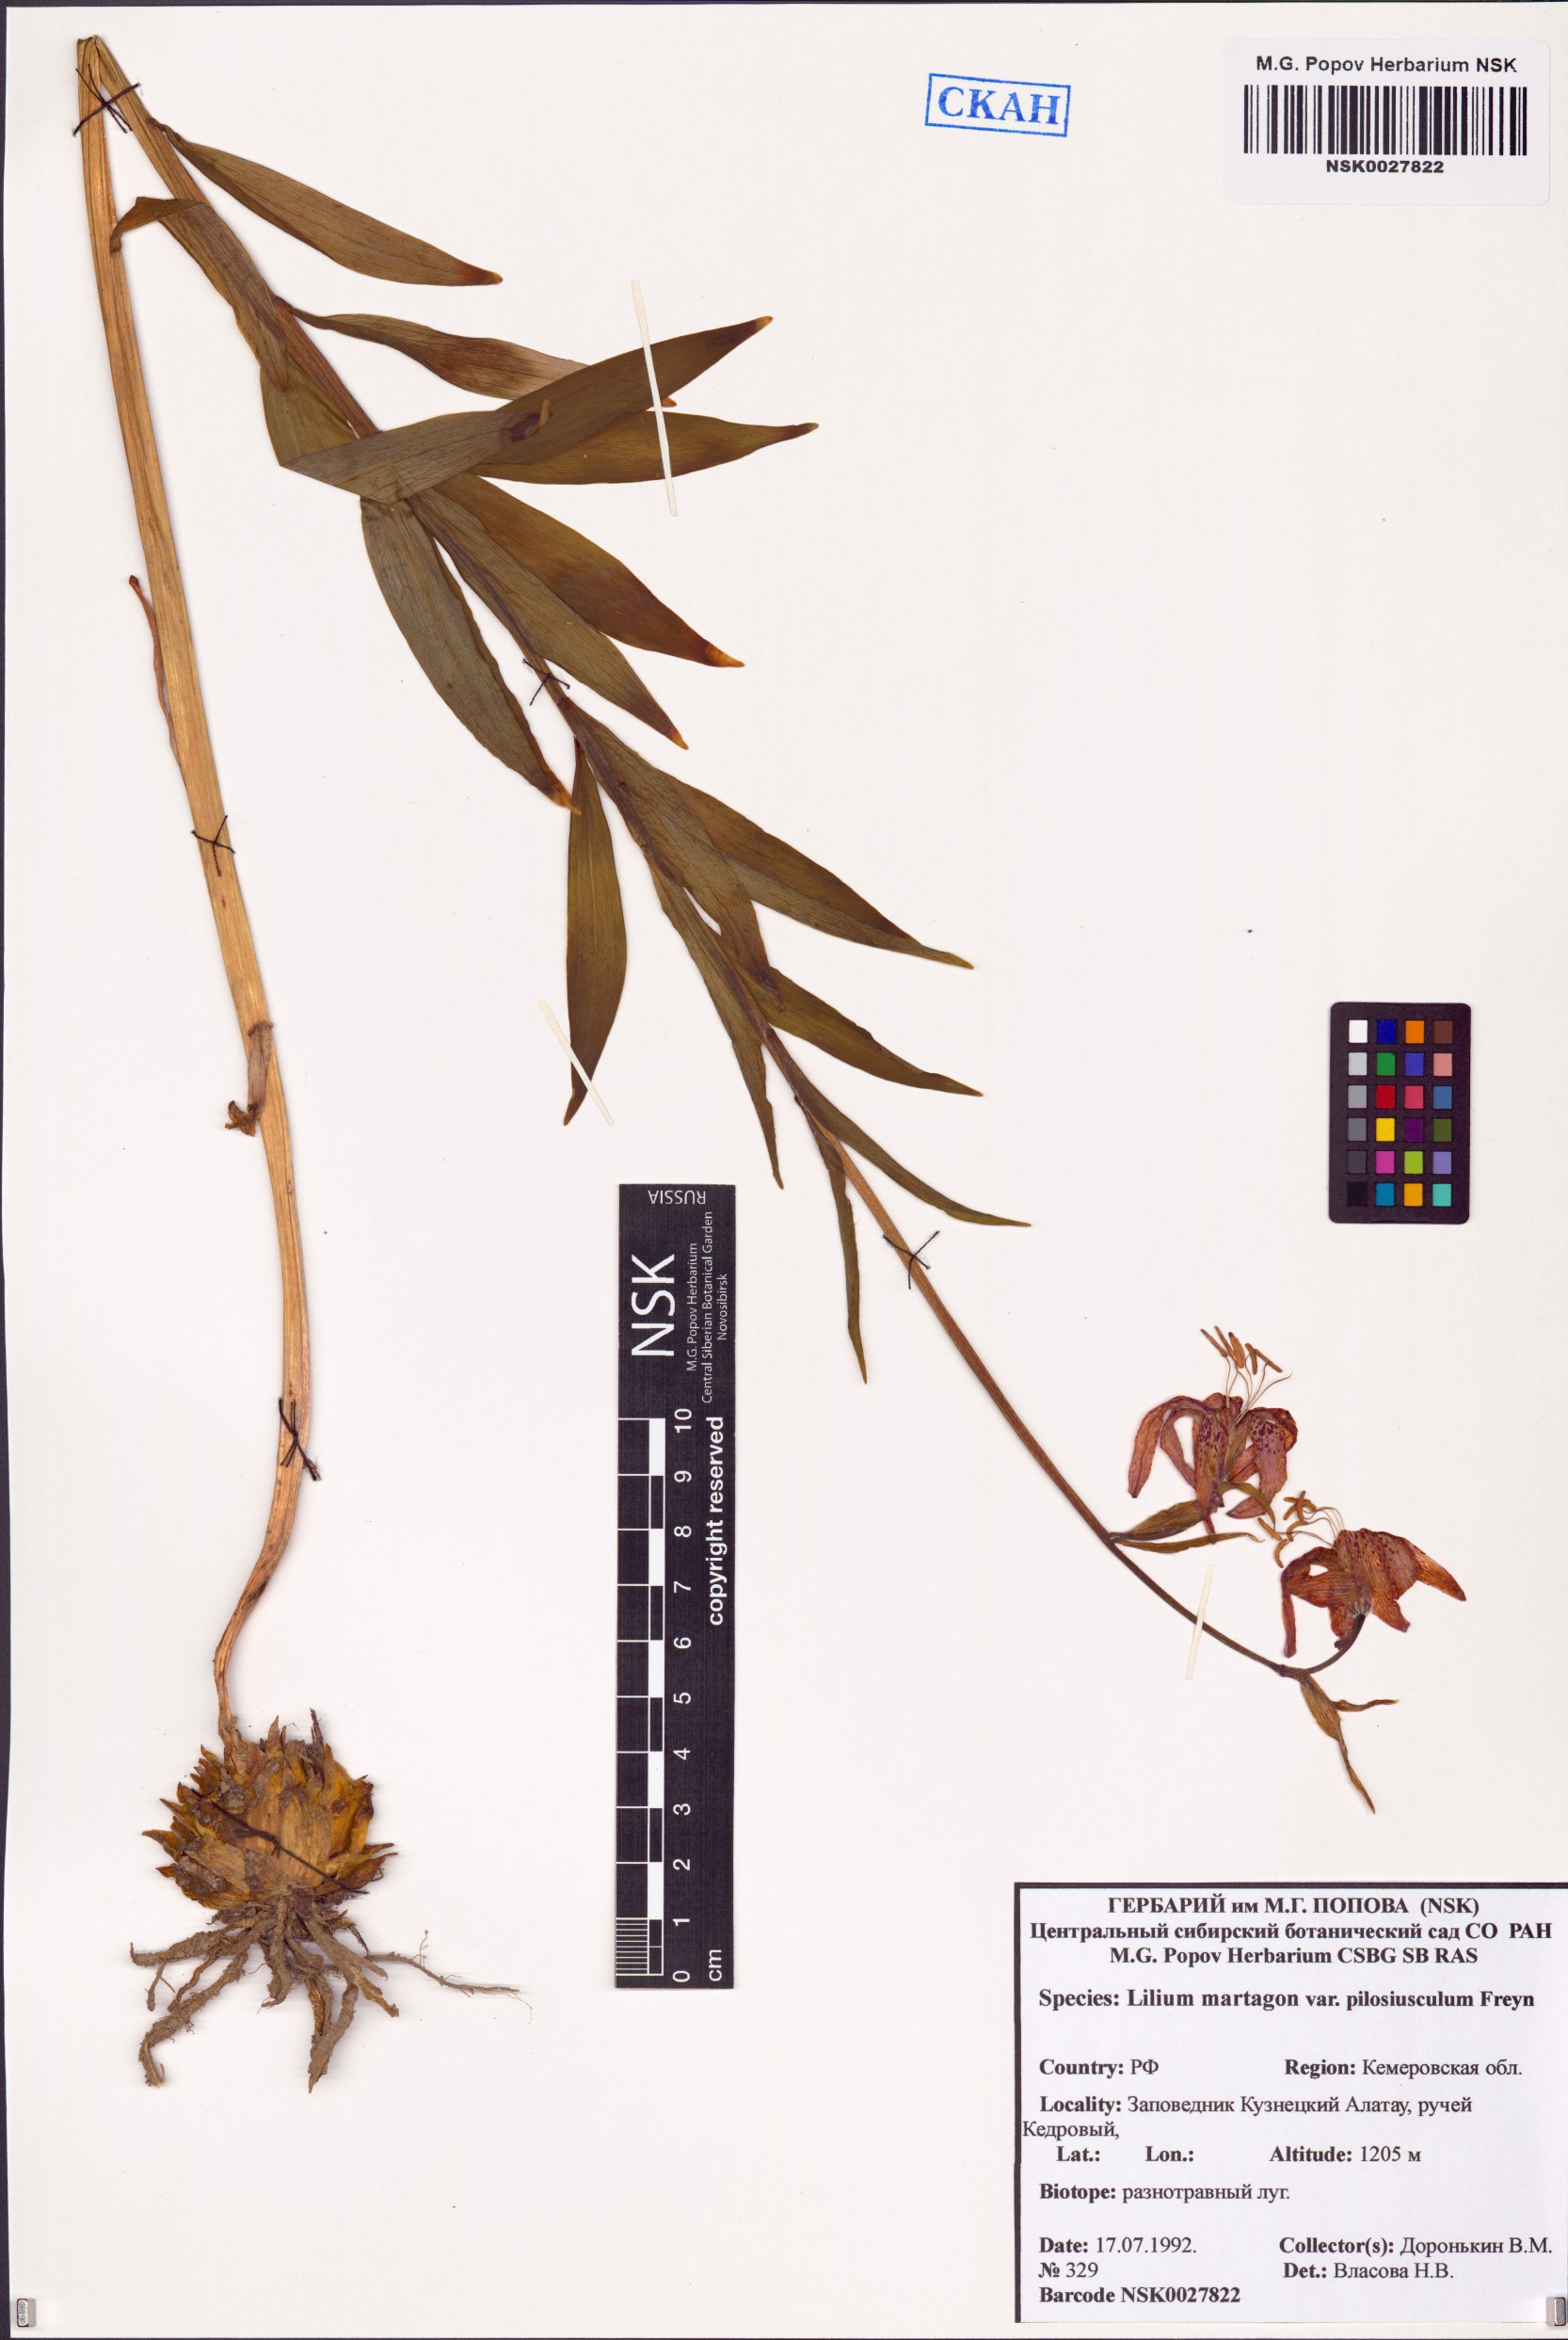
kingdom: Plantae
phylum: Tracheophyta
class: Liliopsida
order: Liliales
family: Liliaceae
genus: Lilium
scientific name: Lilium martagon
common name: Martagon lily
